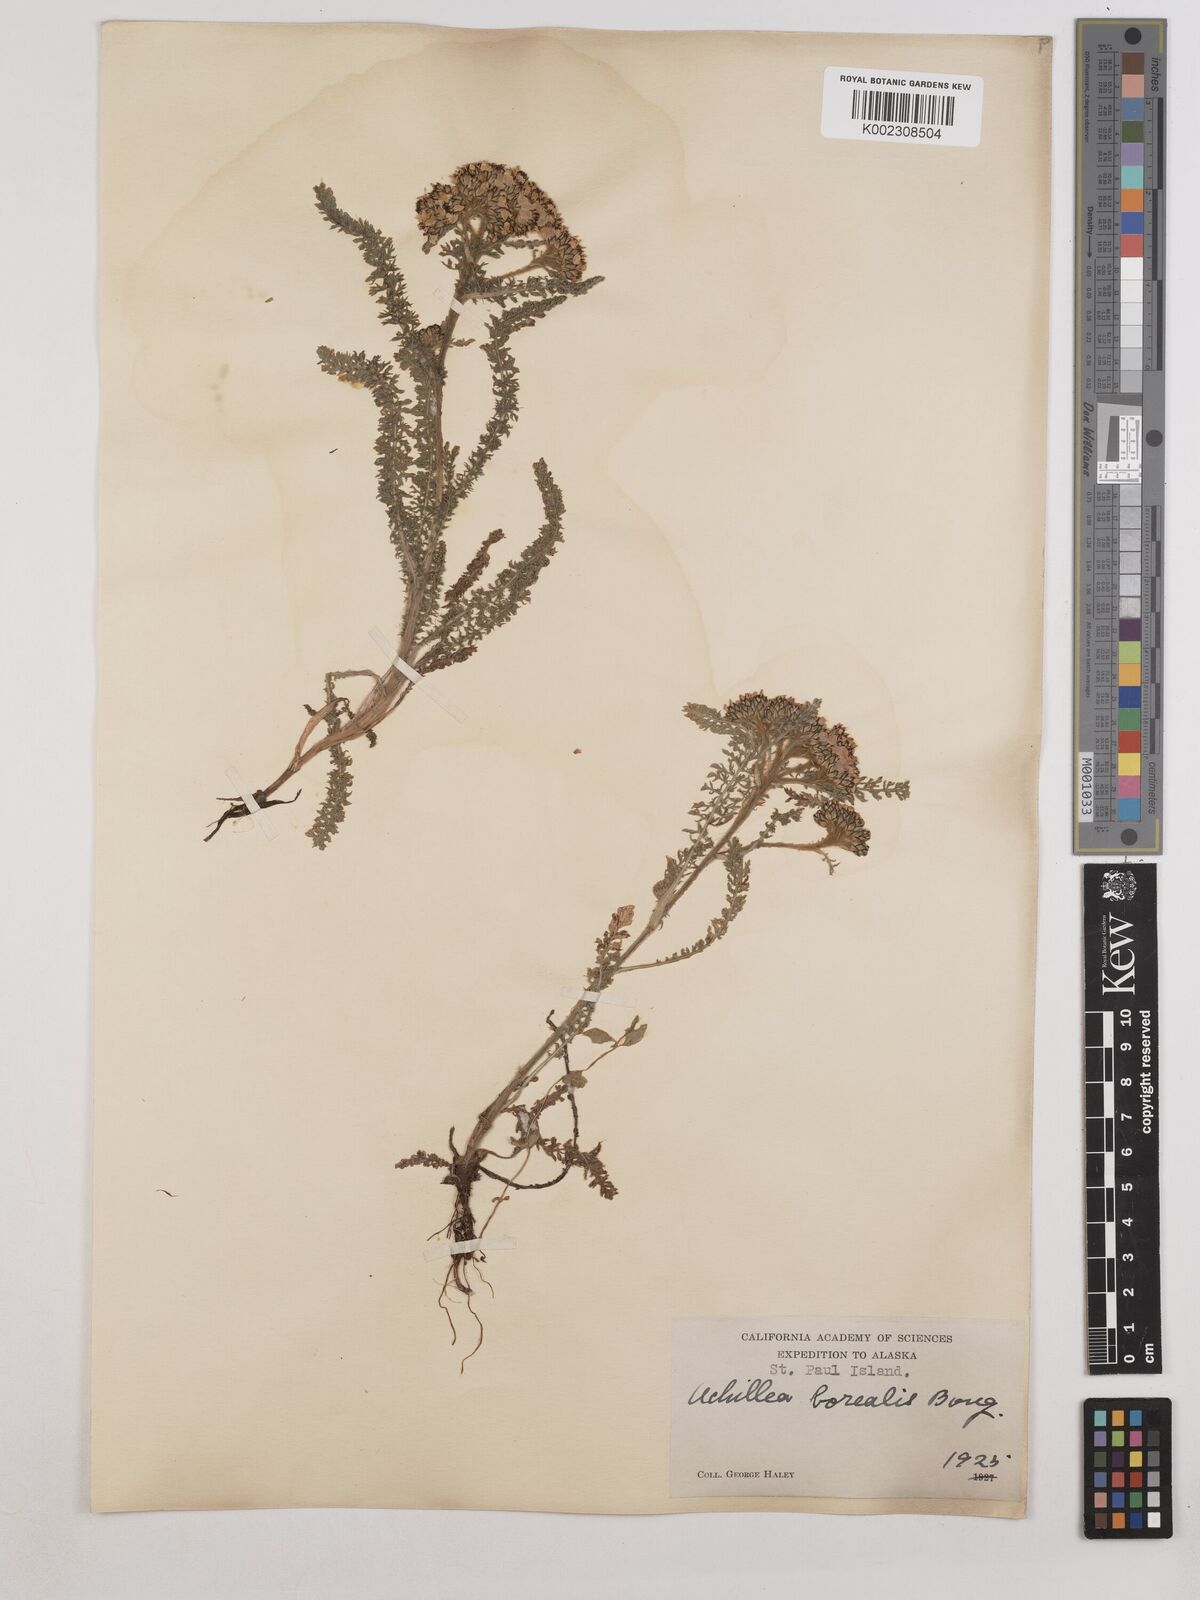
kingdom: Plantae
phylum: Tracheophyta
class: Magnoliopsida
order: Asterales
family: Asteraceae
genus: Achillea
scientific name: Achillea millefolium
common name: Yarrow
